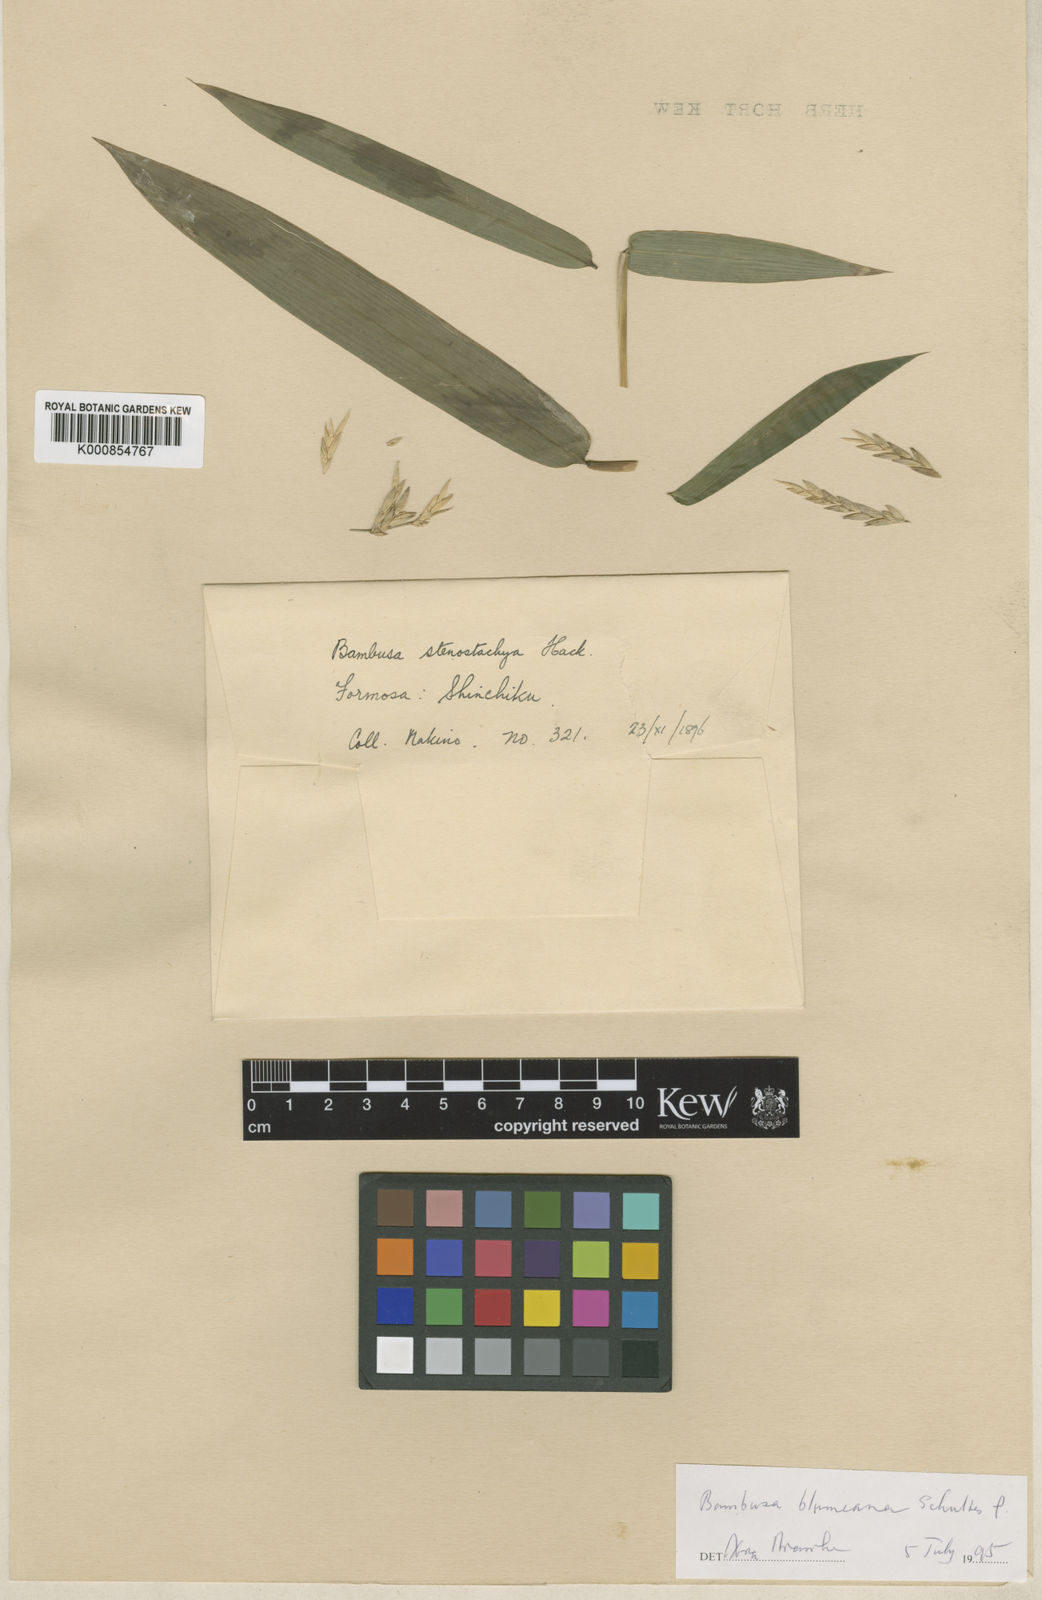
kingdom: Plantae
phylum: Tracheophyta
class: Liliopsida
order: Poales
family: Poaceae
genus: Bambusa
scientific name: Bambusa spinosa
